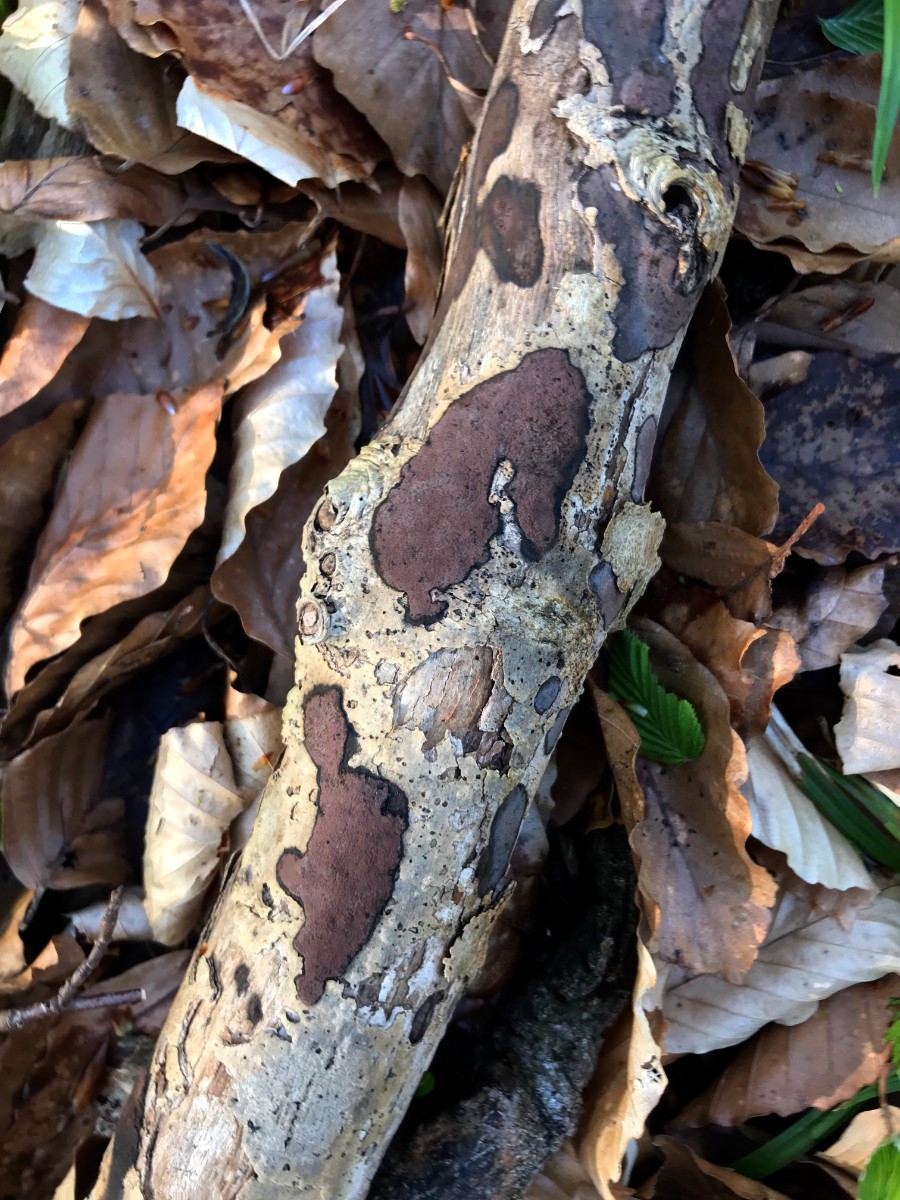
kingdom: Fungi
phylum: Ascomycota
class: Sordariomycetes
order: Xylariales
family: Hypoxylaceae
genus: Hypoxylon
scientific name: Hypoxylon petriniae
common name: nedsænket kulbær
